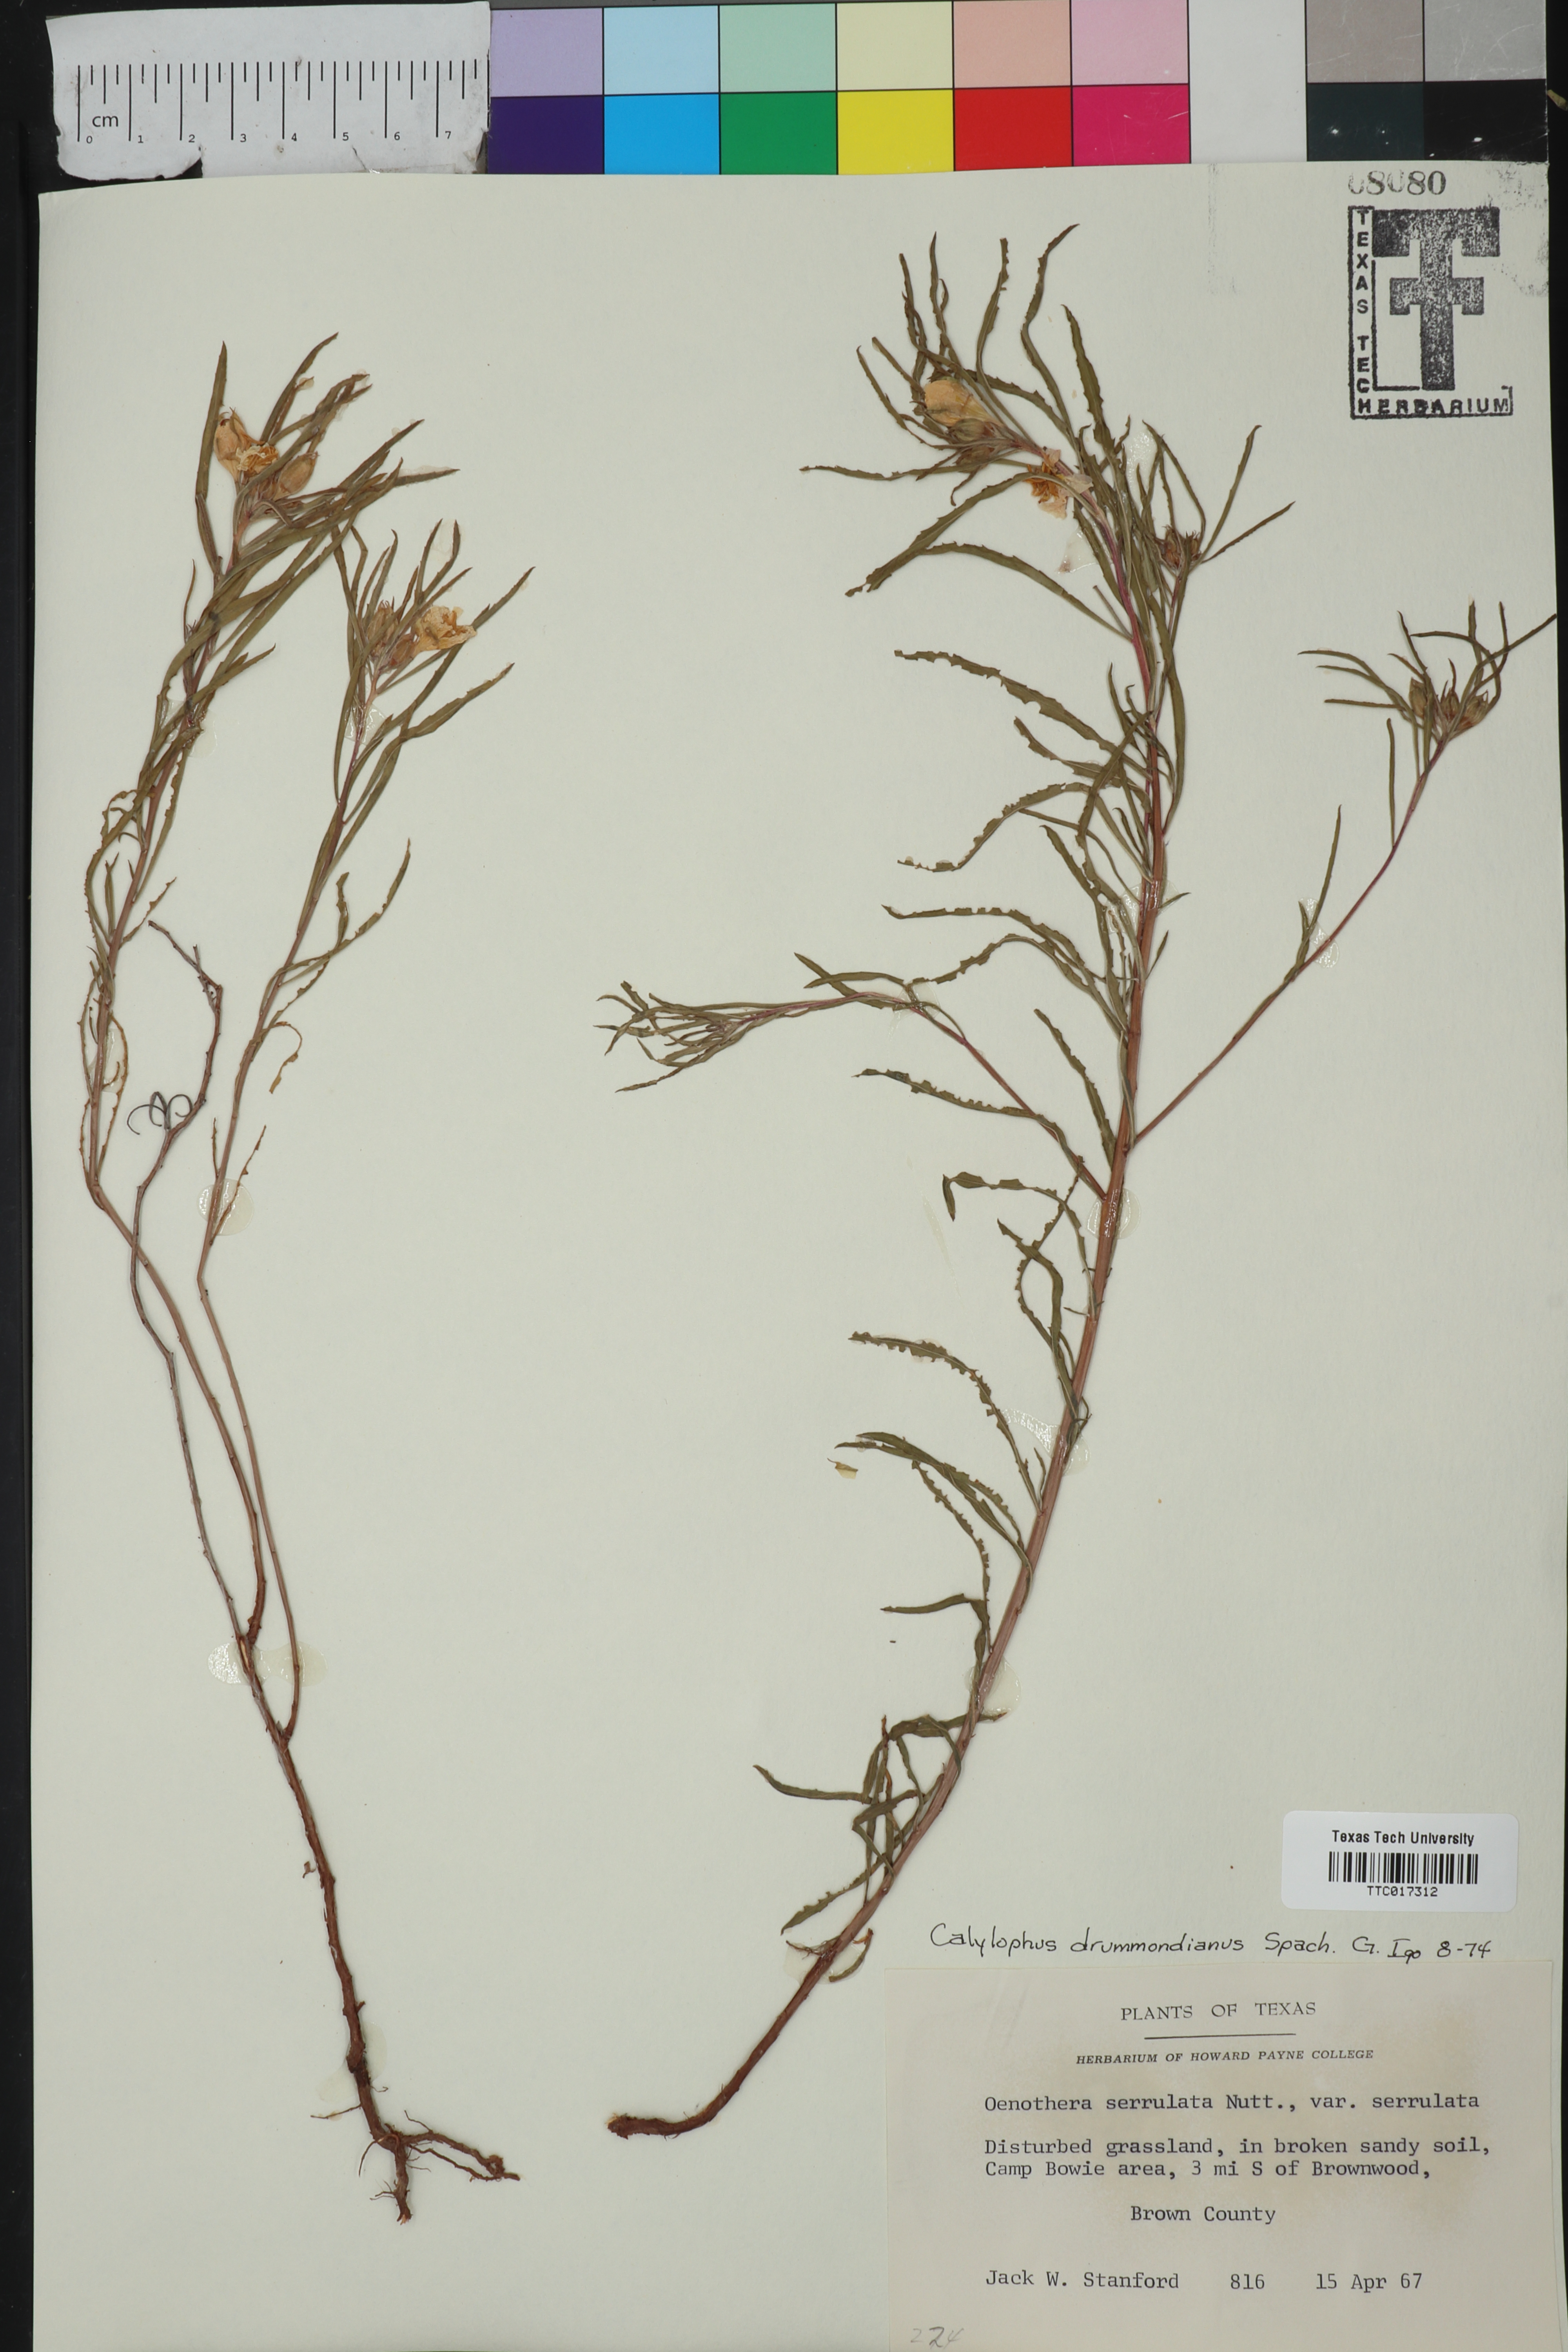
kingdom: Plantae
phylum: Tracheophyta
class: Magnoliopsida
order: Myrtales
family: Onagraceae
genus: Oenothera
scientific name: Oenothera serrulata
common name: Half-shrub calylophus
